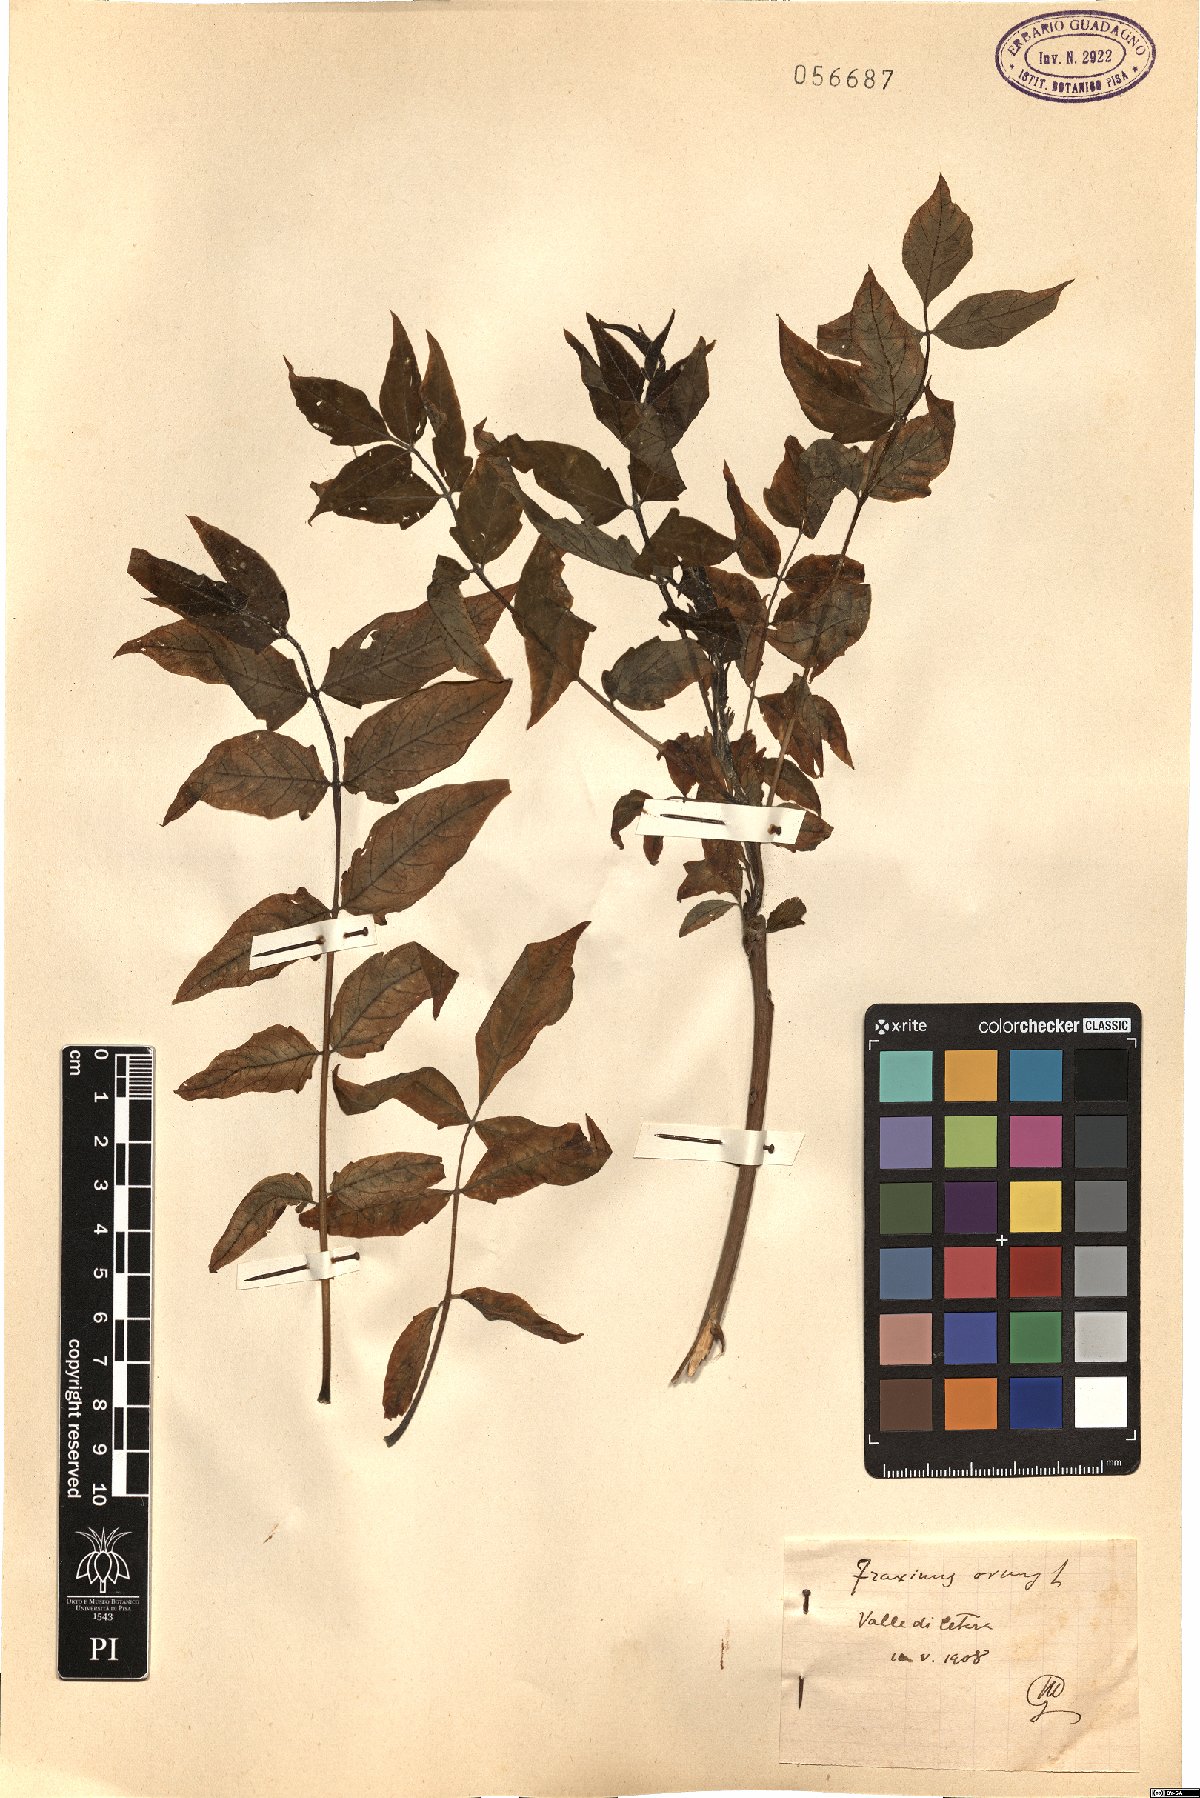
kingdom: Plantae
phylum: Tracheophyta
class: Magnoliopsida
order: Lamiales
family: Oleaceae
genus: Fraxinus
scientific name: Fraxinus ornus
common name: Manna ash
